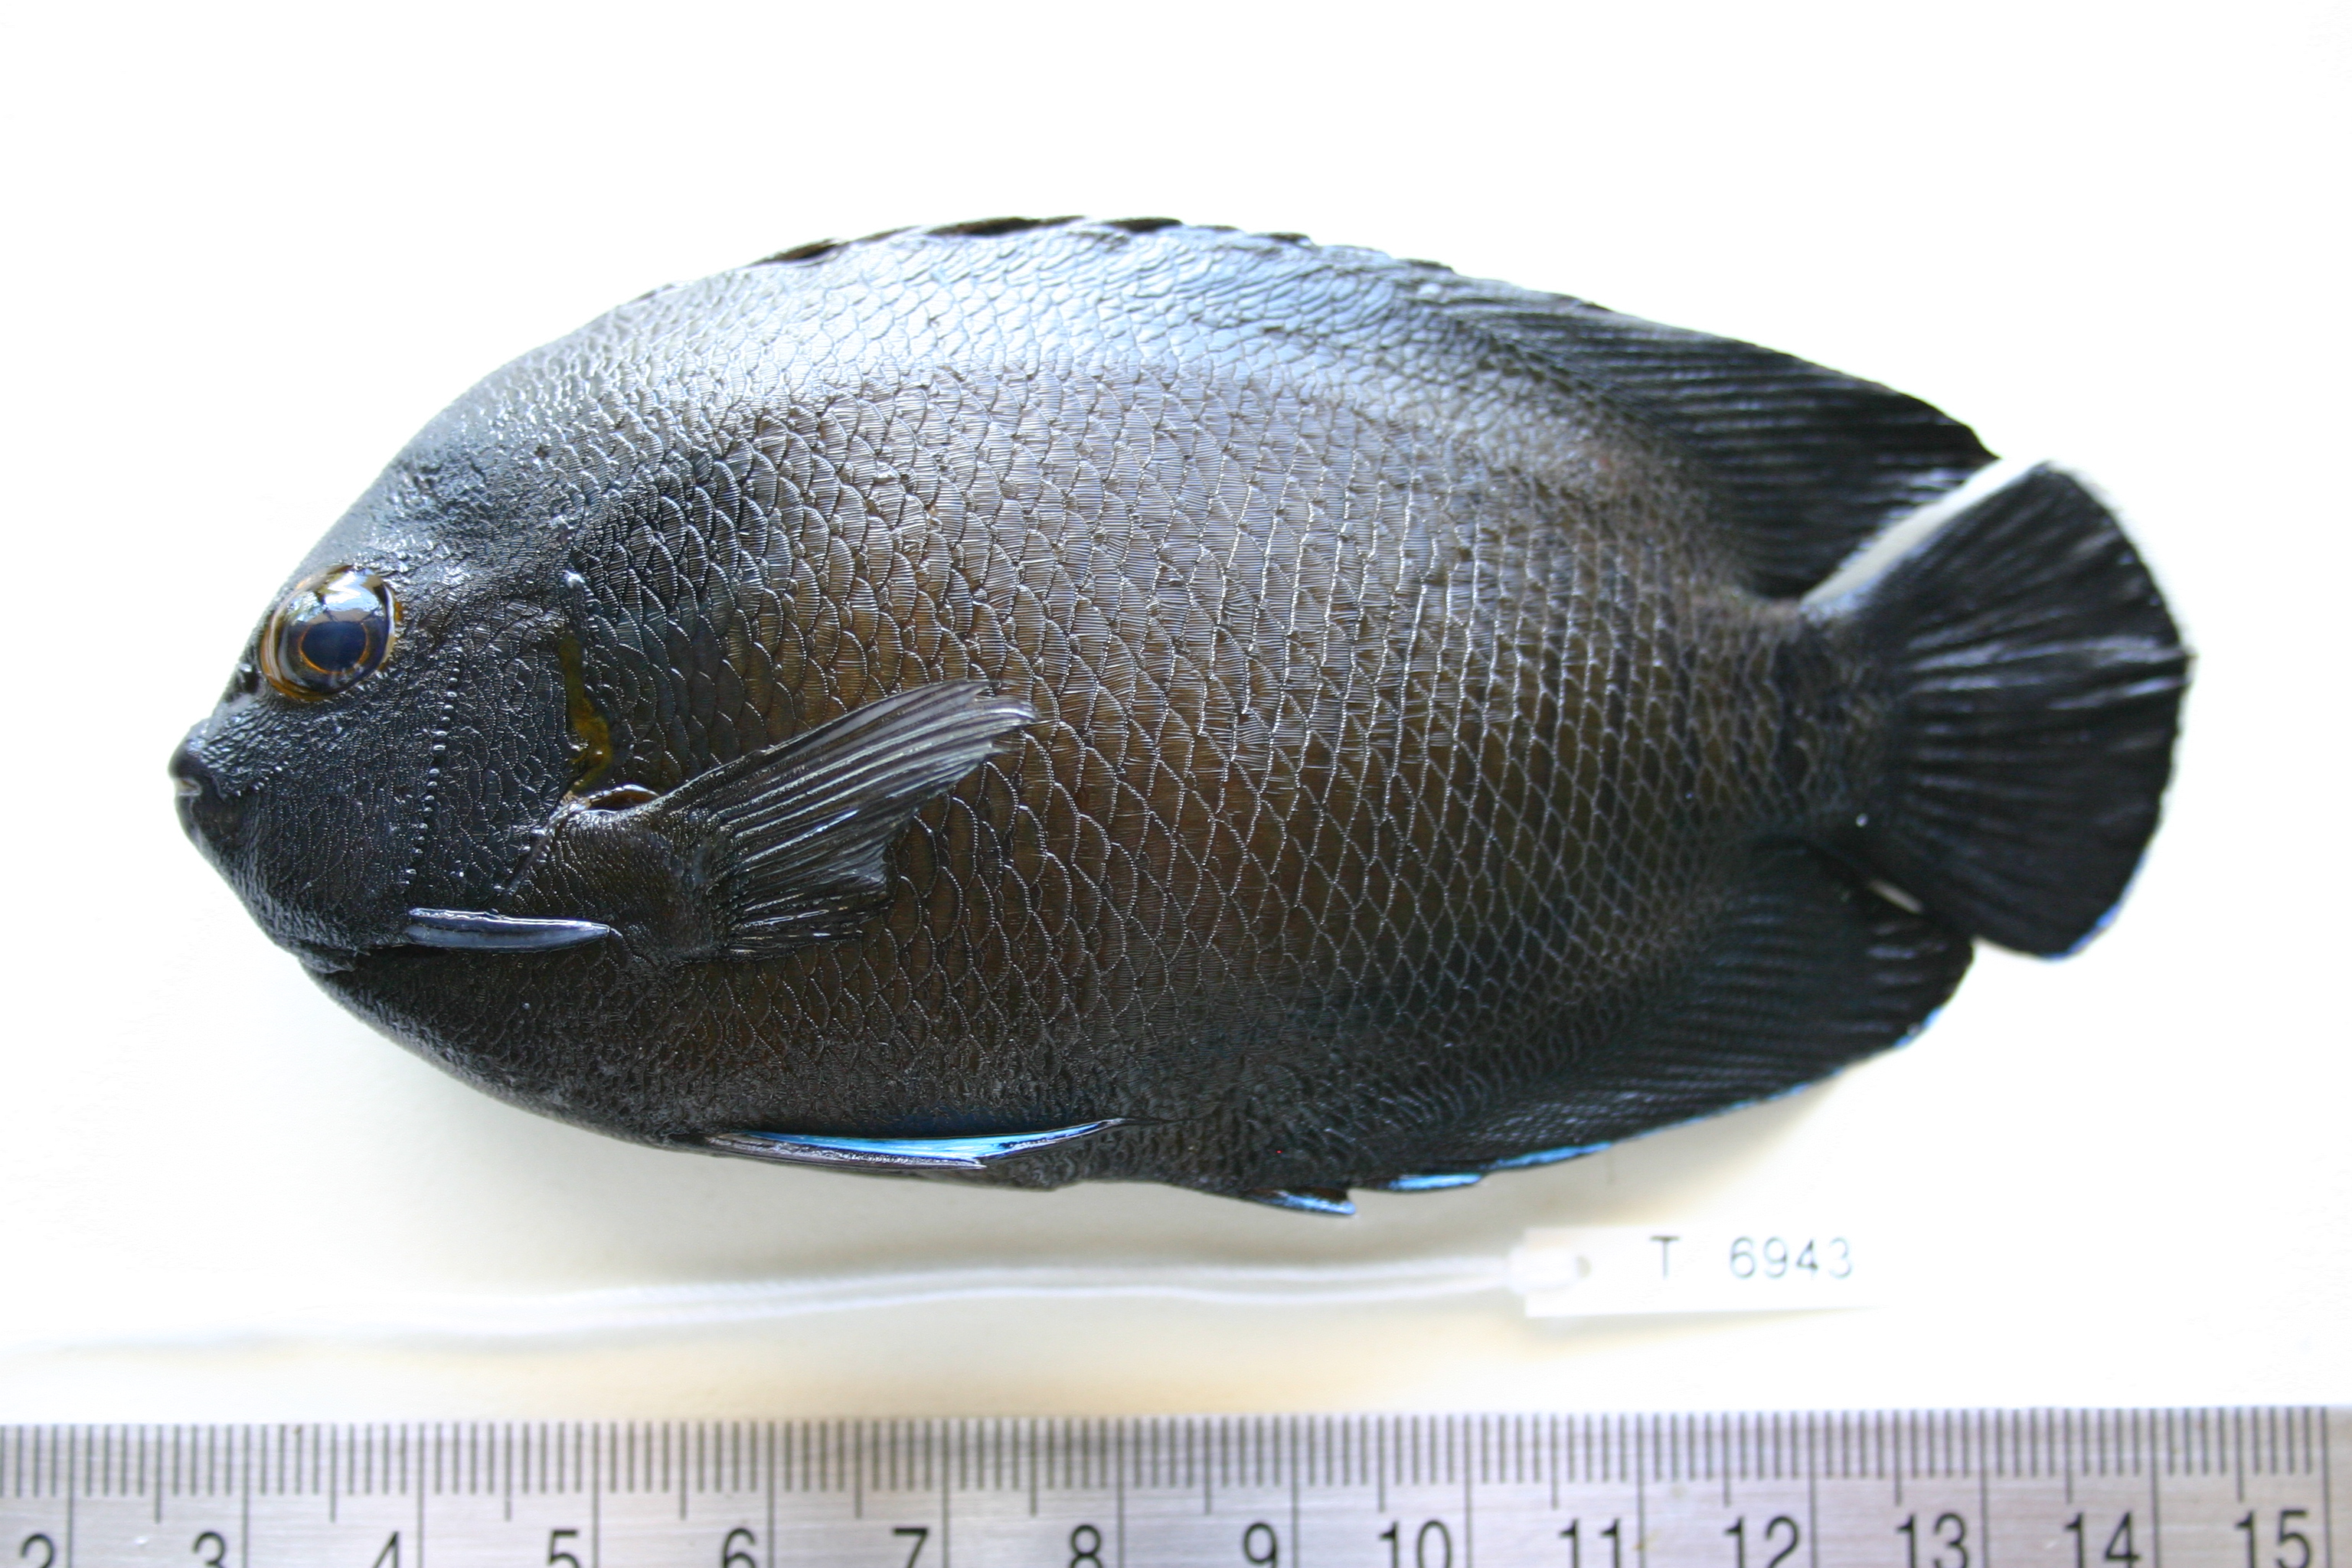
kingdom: Animalia
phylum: Chordata
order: Perciformes
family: Pomacanthidae
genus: Centropyge
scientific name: Centropyge multispinis
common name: Many-spined angelfish
